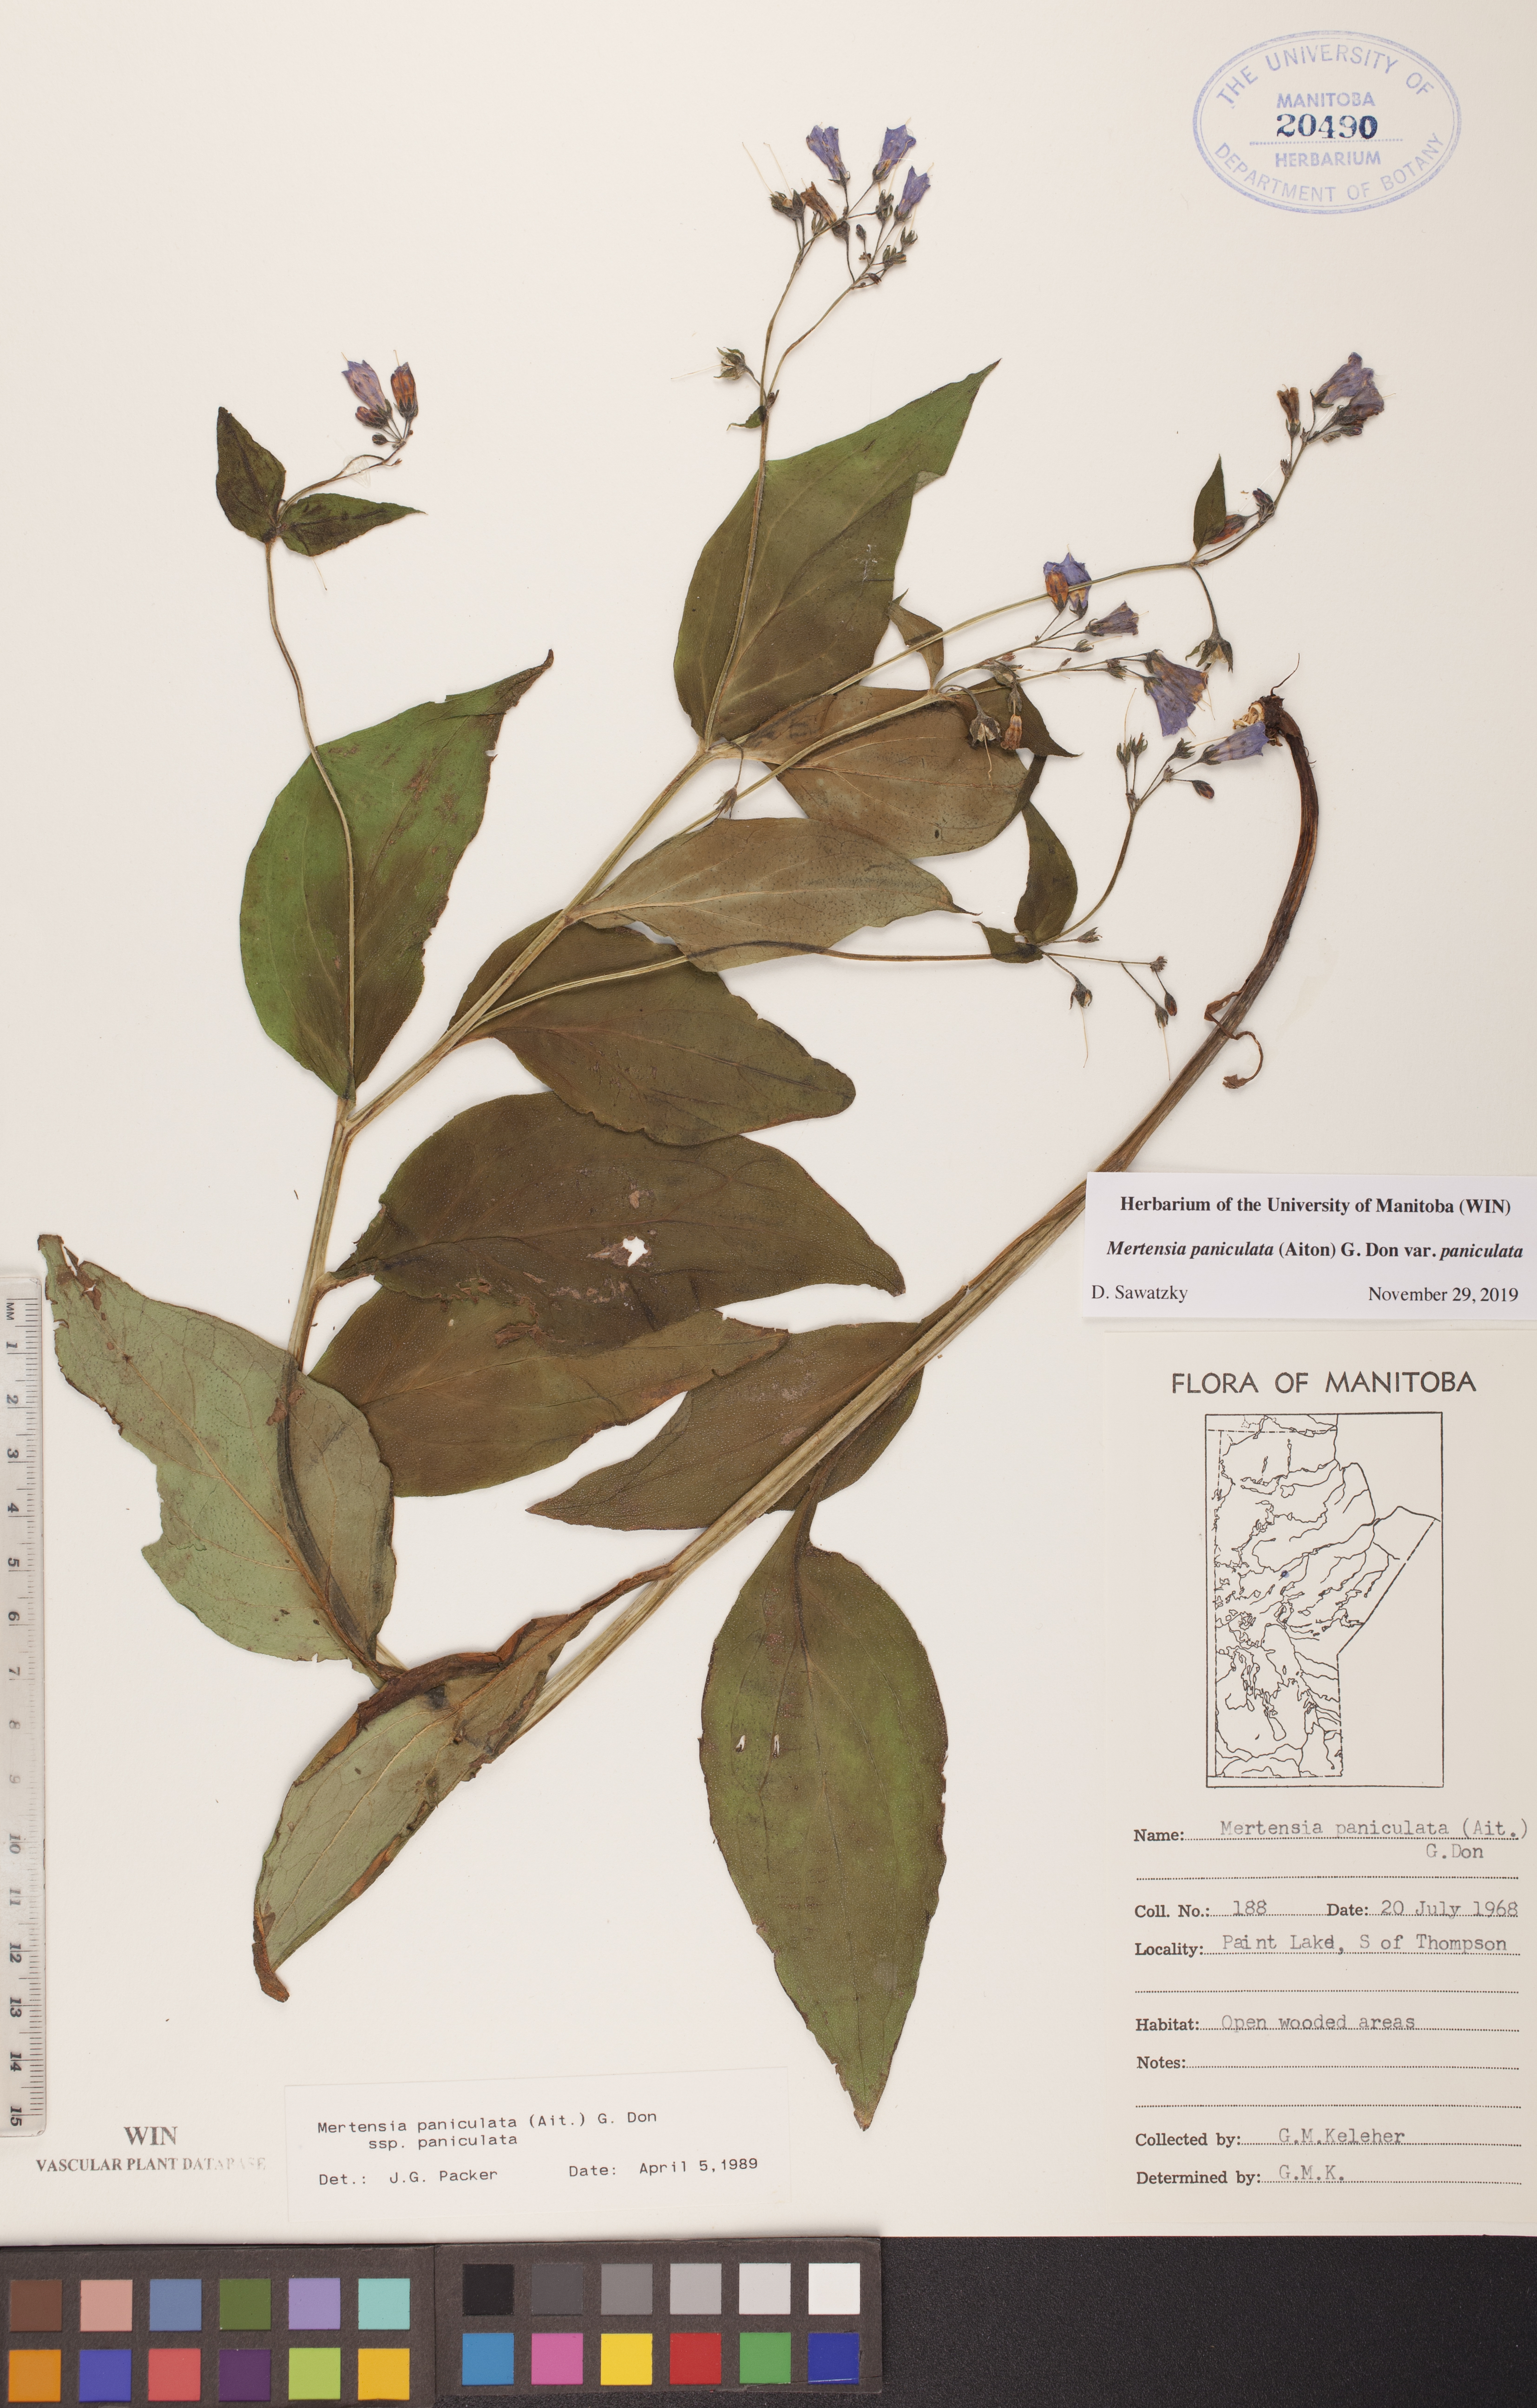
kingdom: Plantae
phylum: Tracheophyta
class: Magnoliopsida
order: Boraginales
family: Boraginaceae
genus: Mertensia
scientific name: Mertensia paniculata
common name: Panicled bluebells
